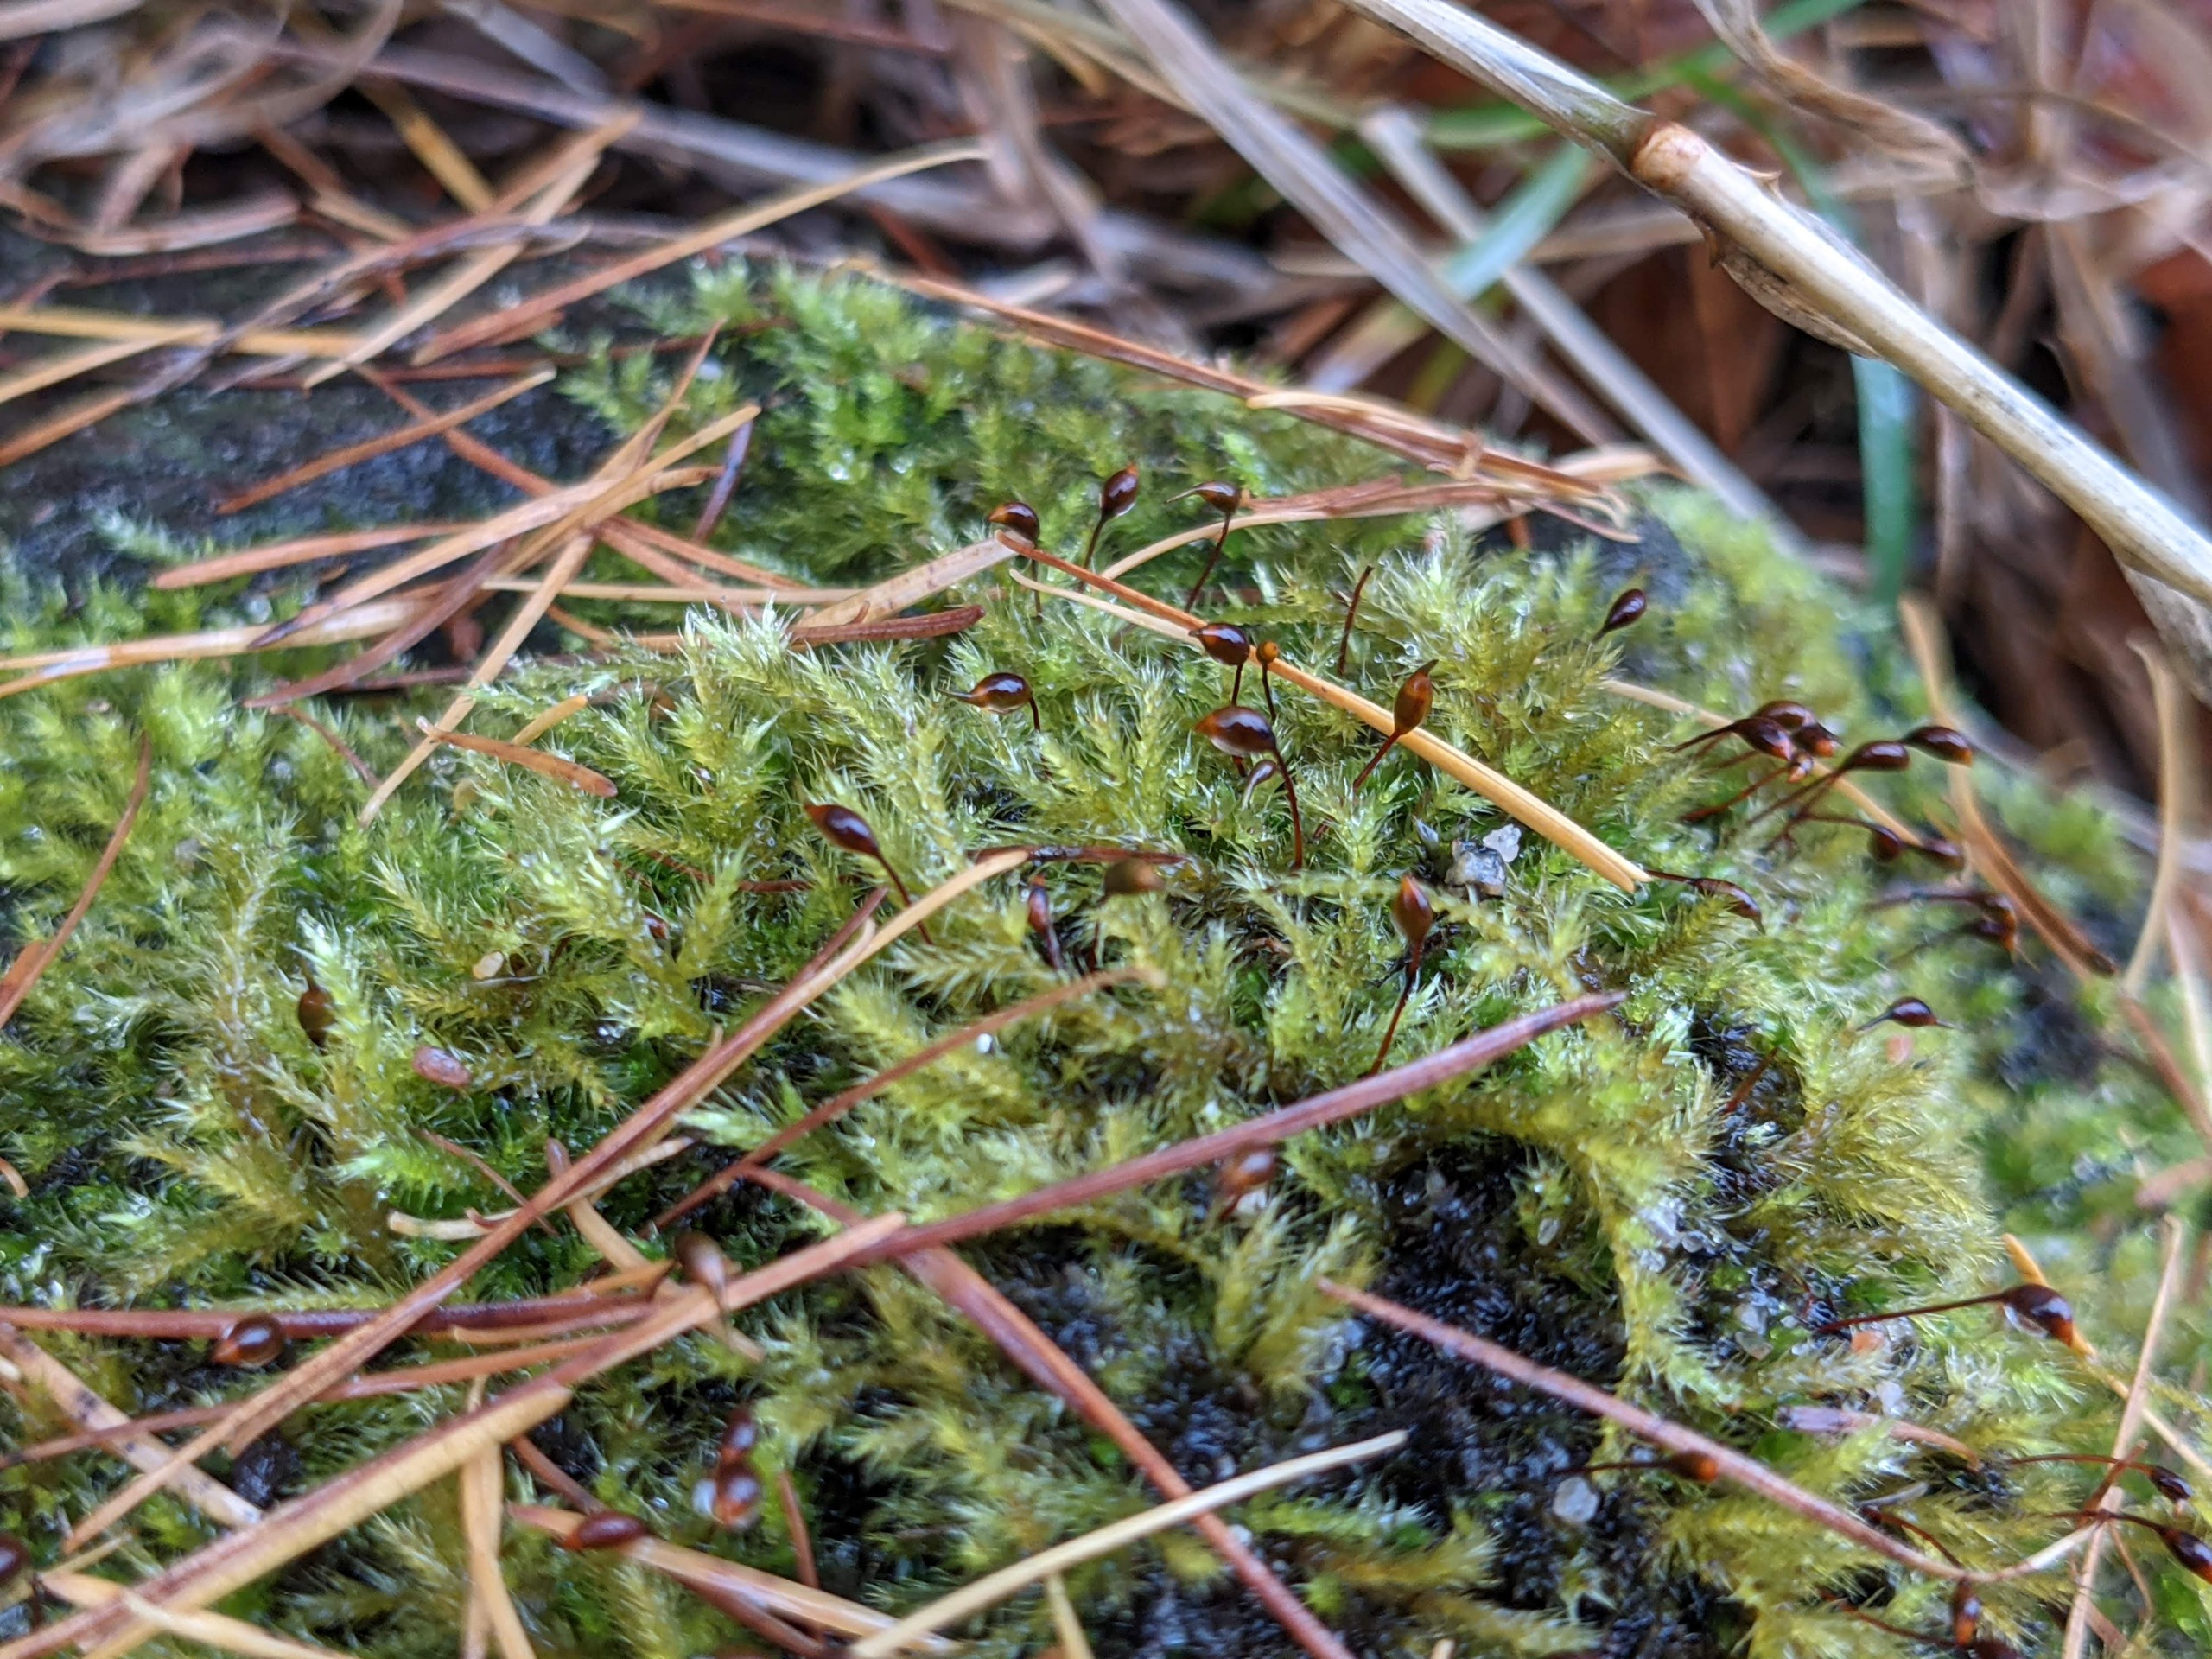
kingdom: Plantae
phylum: Bryophyta
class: Bryopsida
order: Hypnales
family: Brachytheciaceae
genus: Sciuro-hypnum
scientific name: Sciuro-hypnum populeum
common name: Park-kortkapsel
